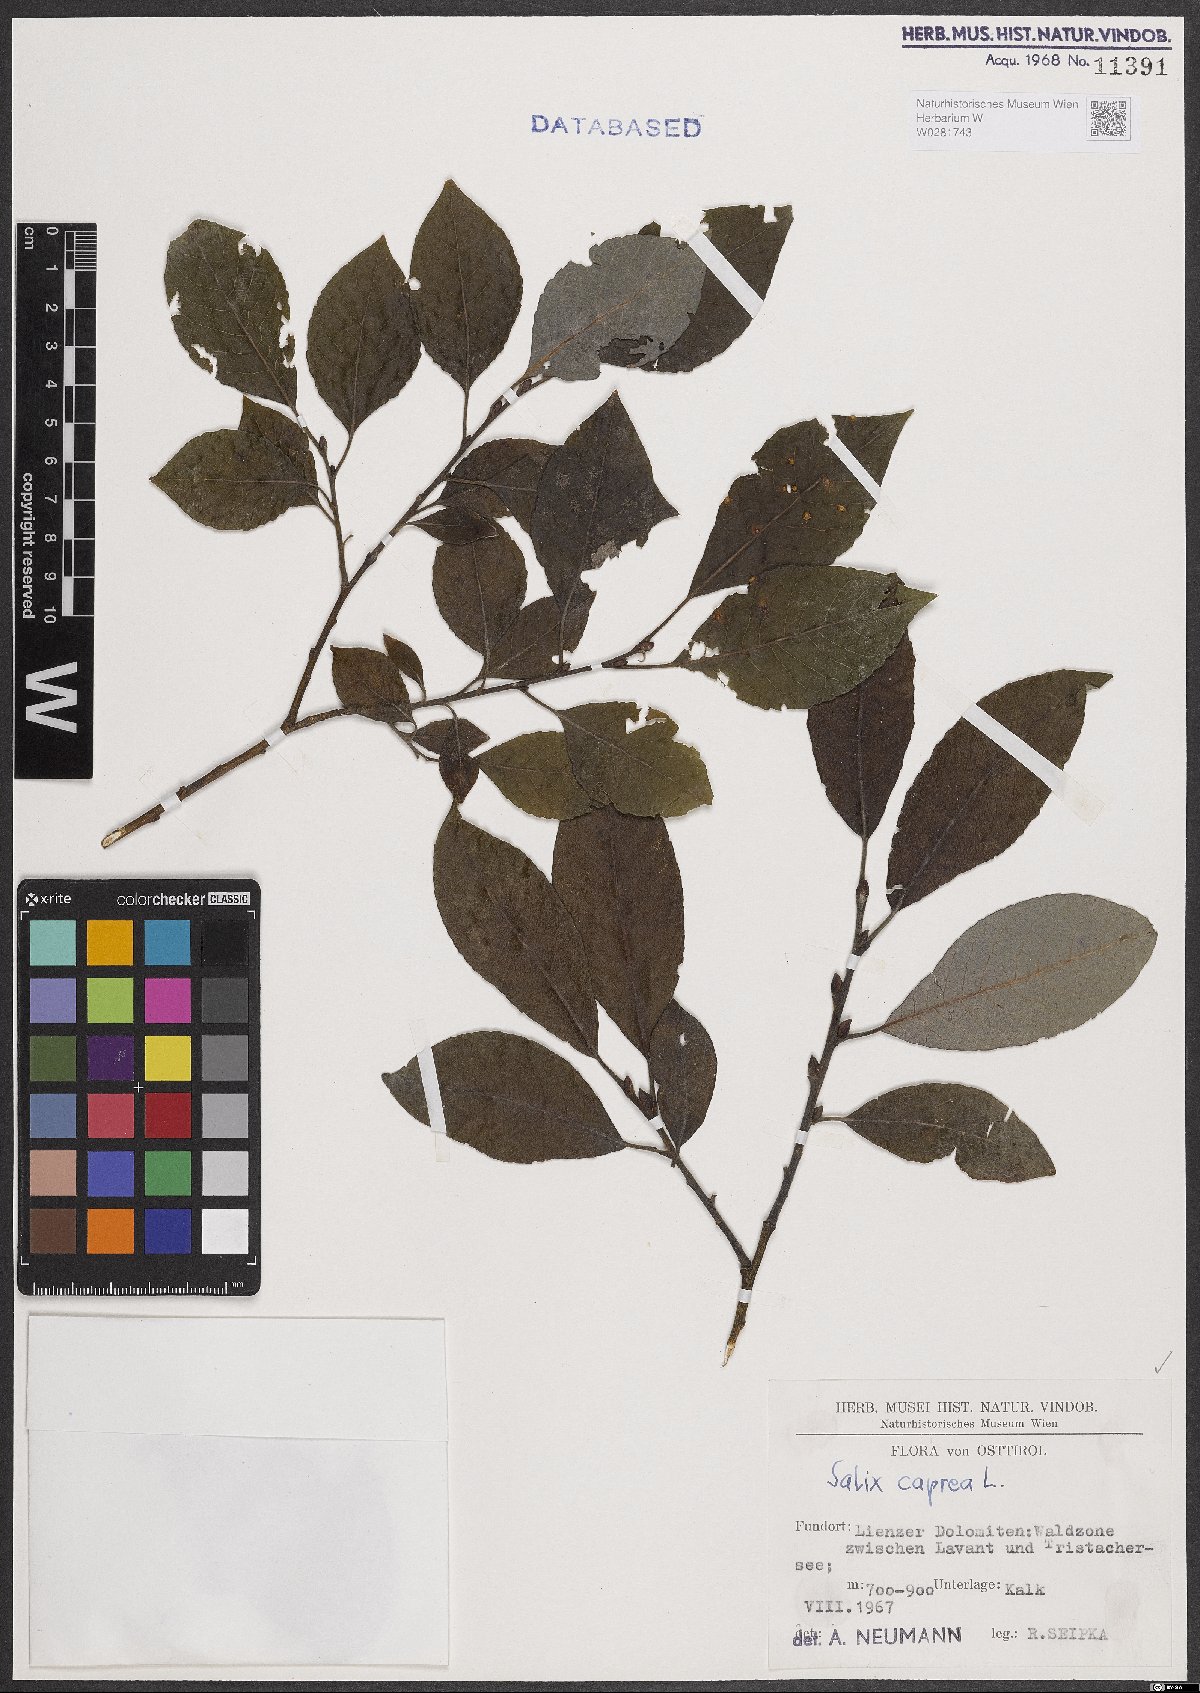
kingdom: Plantae
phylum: Tracheophyta
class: Magnoliopsida
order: Malpighiales
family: Salicaceae
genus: Salix
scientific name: Salix caprea
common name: Goat willow
